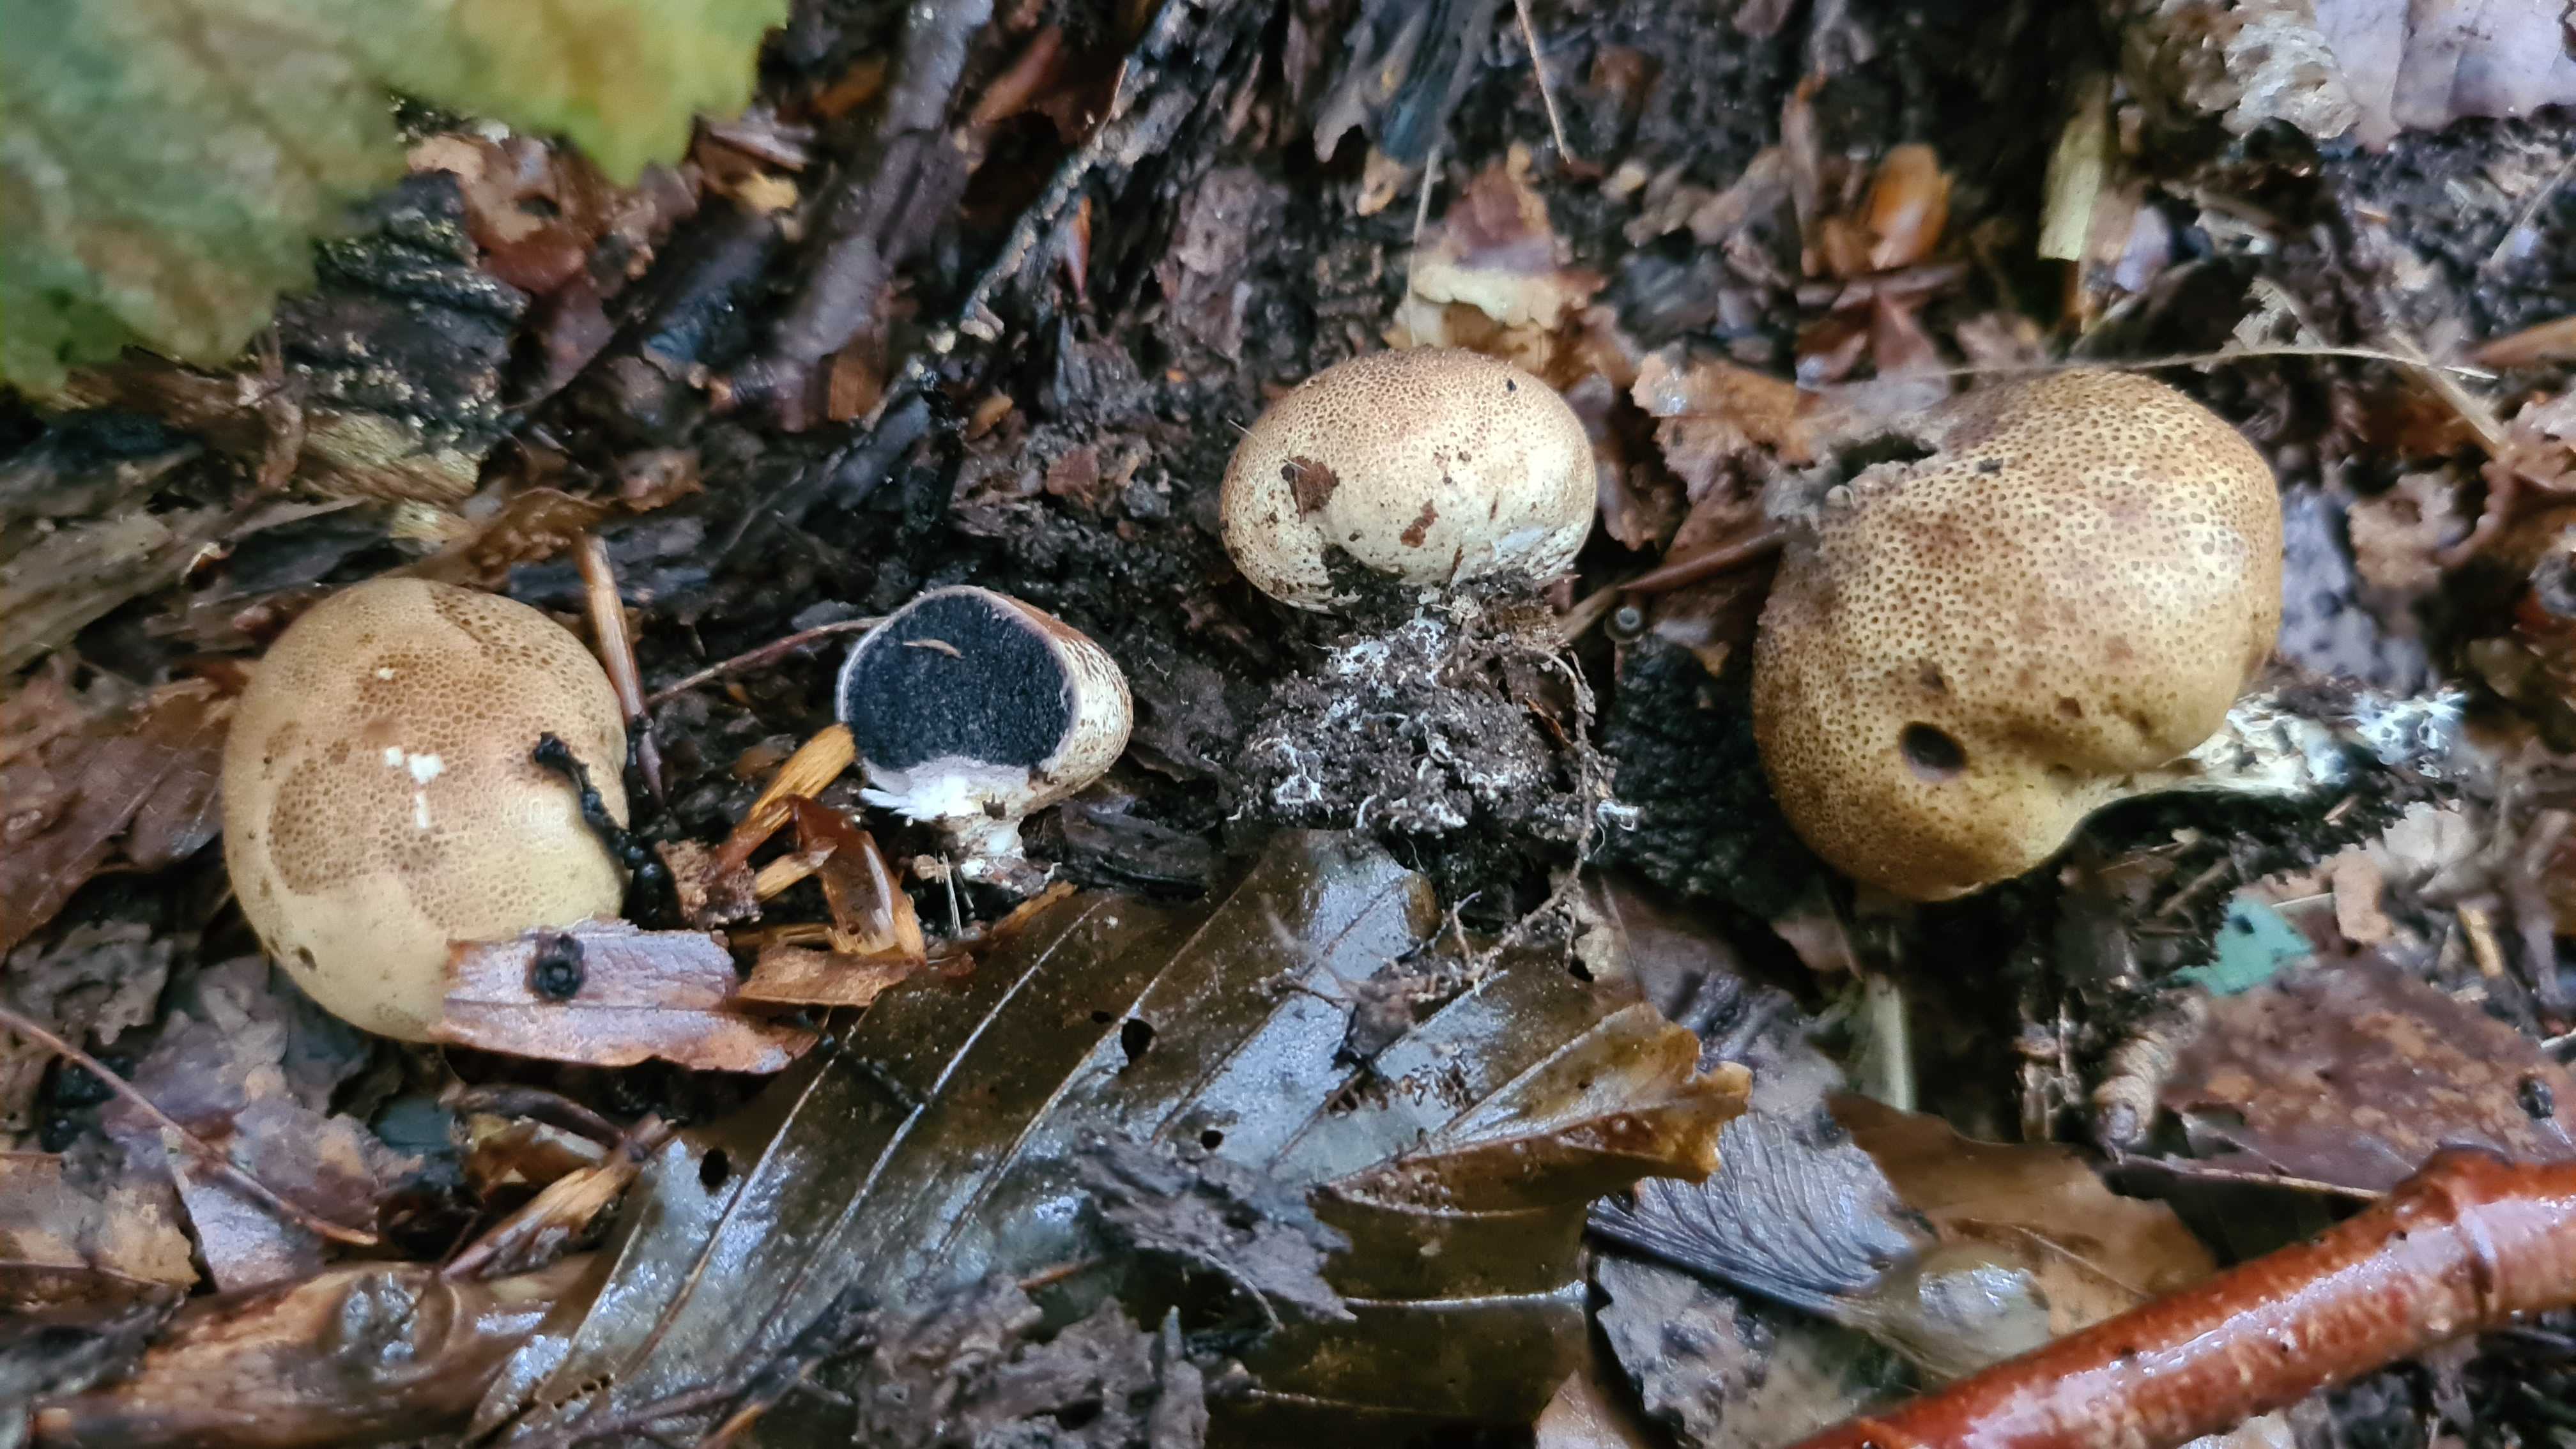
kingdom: Fungi
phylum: Basidiomycota
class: Agaricomycetes
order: Boletales
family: Sclerodermataceae
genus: Scleroderma
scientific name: Scleroderma areolatum
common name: plettet bruskbold
